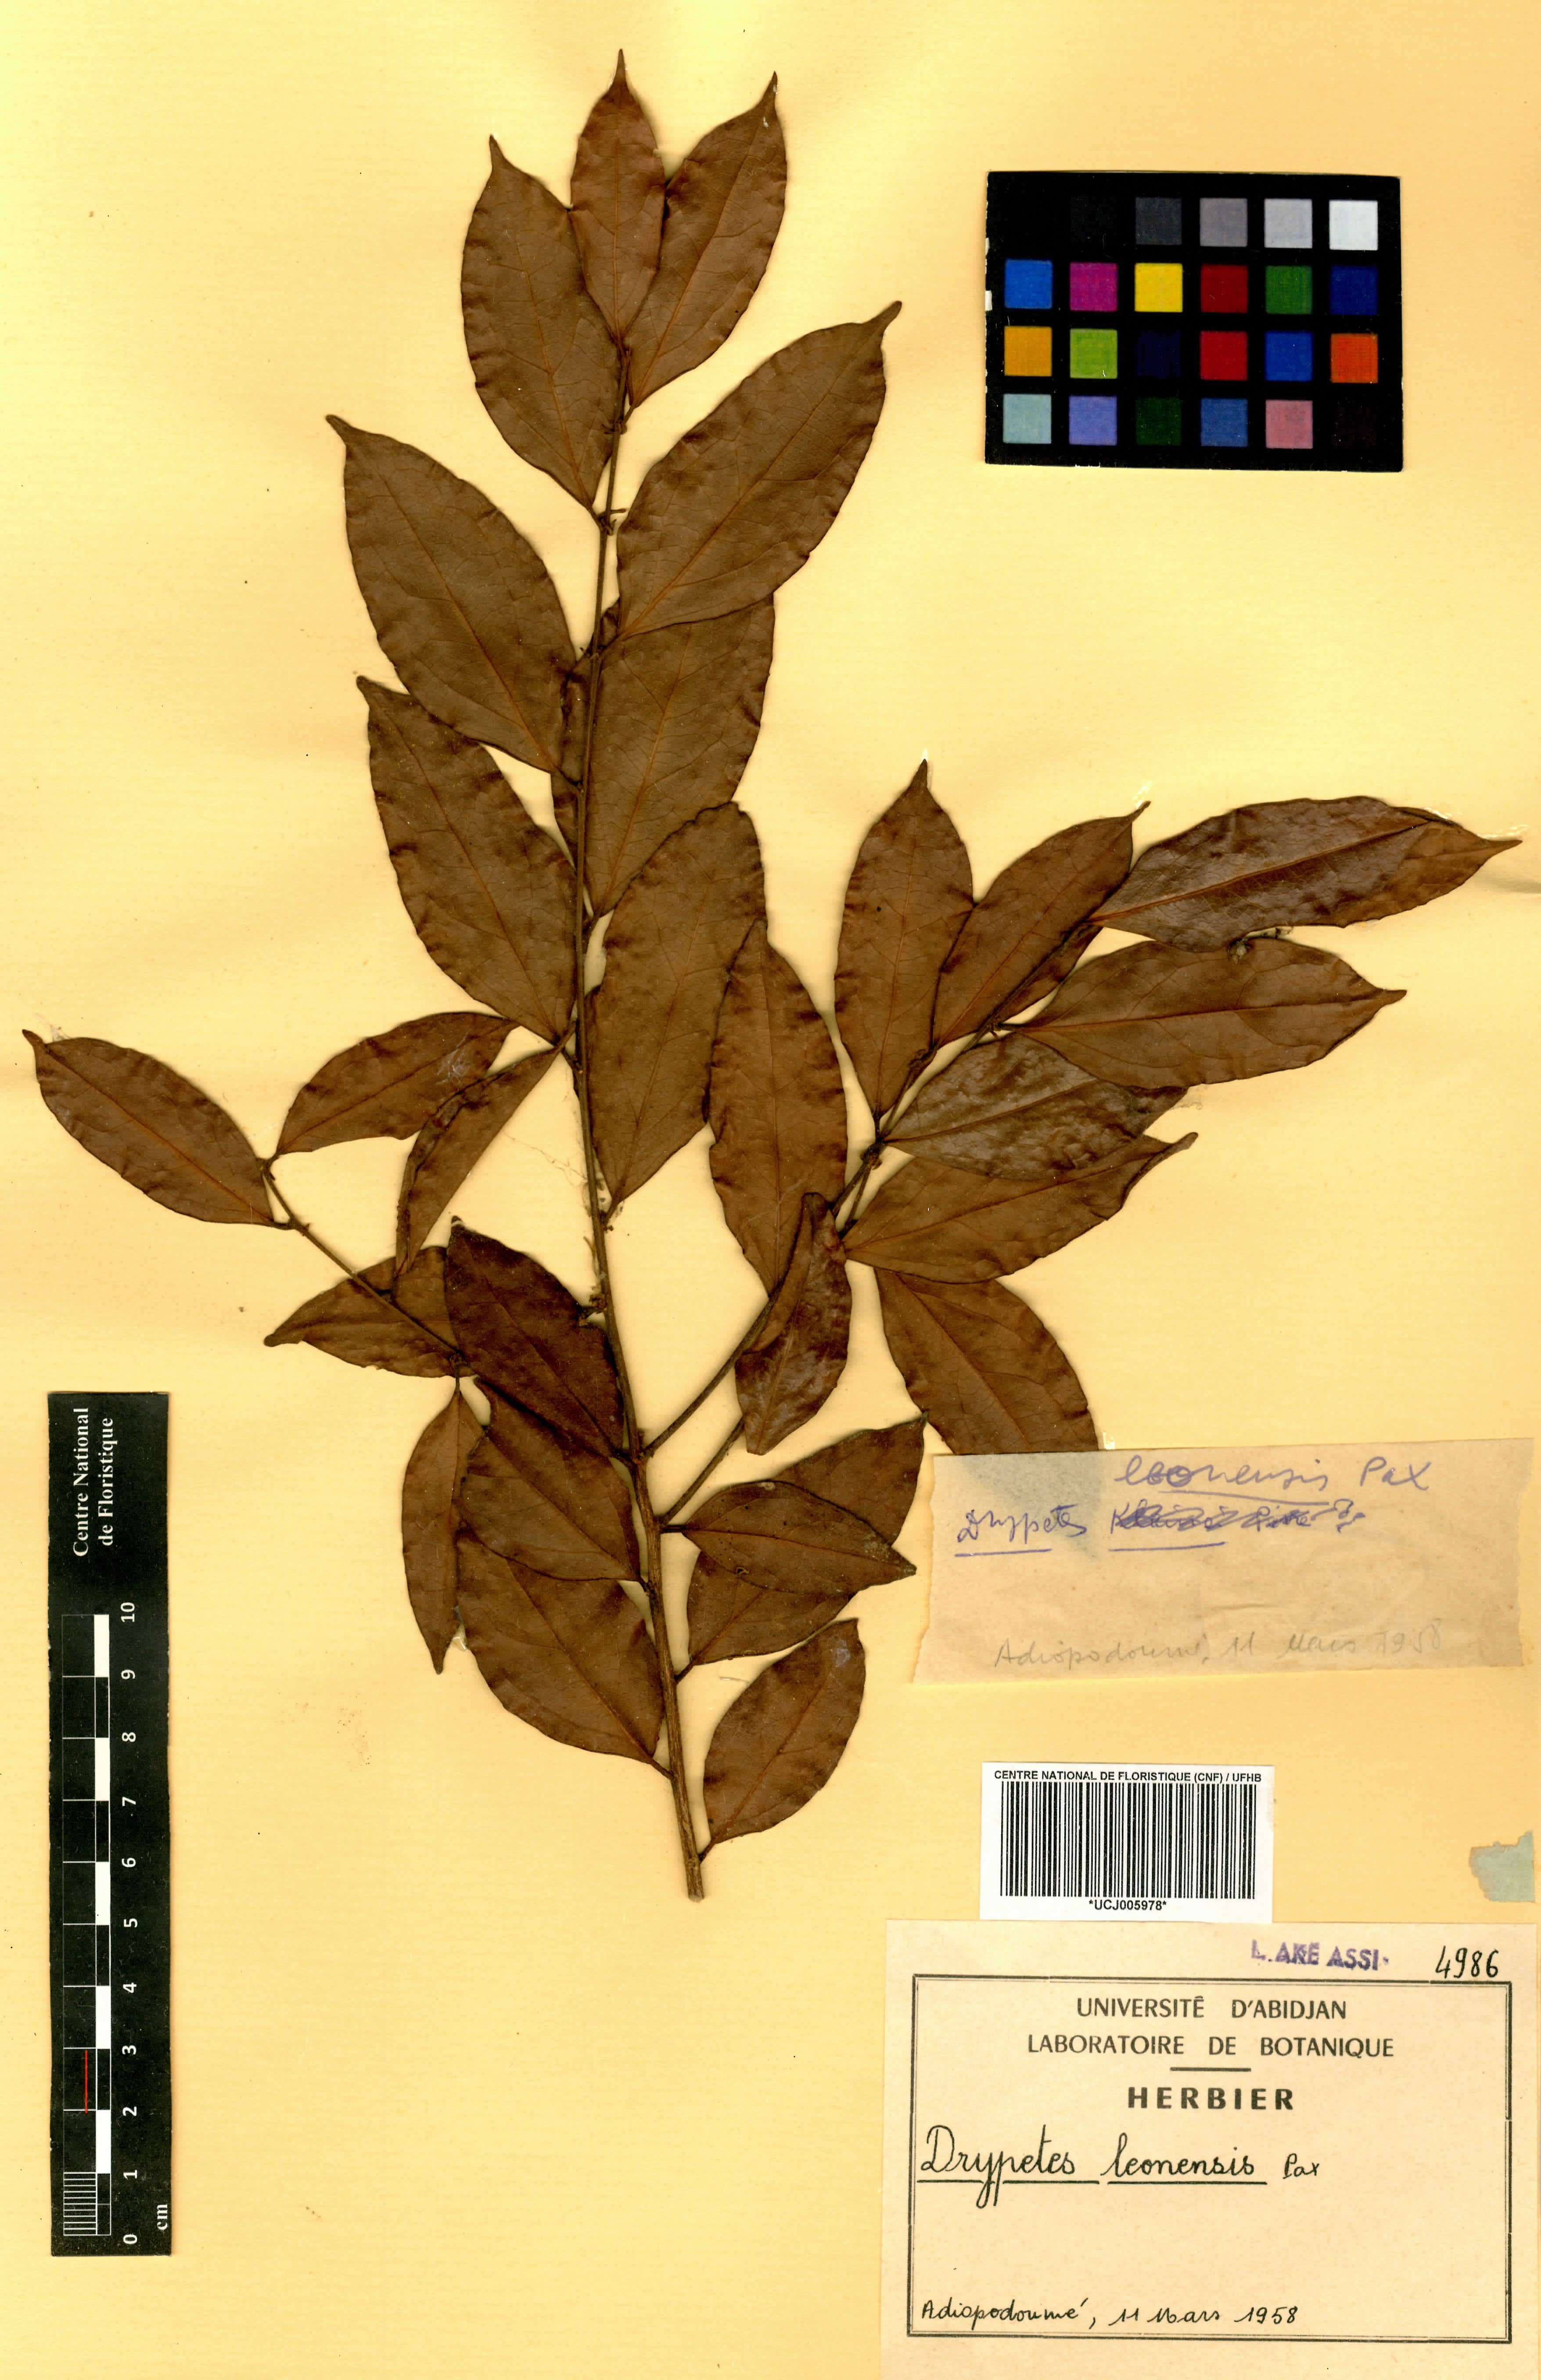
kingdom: Plantae
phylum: Tracheophyta
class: Magnoliopsida
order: Malpighiales
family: Putranjivaceae
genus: Drypetes
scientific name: Drypetes leonensis
